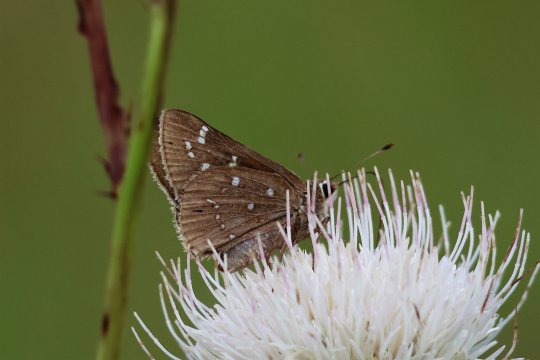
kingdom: Animalia
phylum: Arthropoda
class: Insecta
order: Lepidoptera
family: Hesperiidae
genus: Atrytonopsis
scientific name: Atrytonopsis loammi
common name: Loammi Skipper
